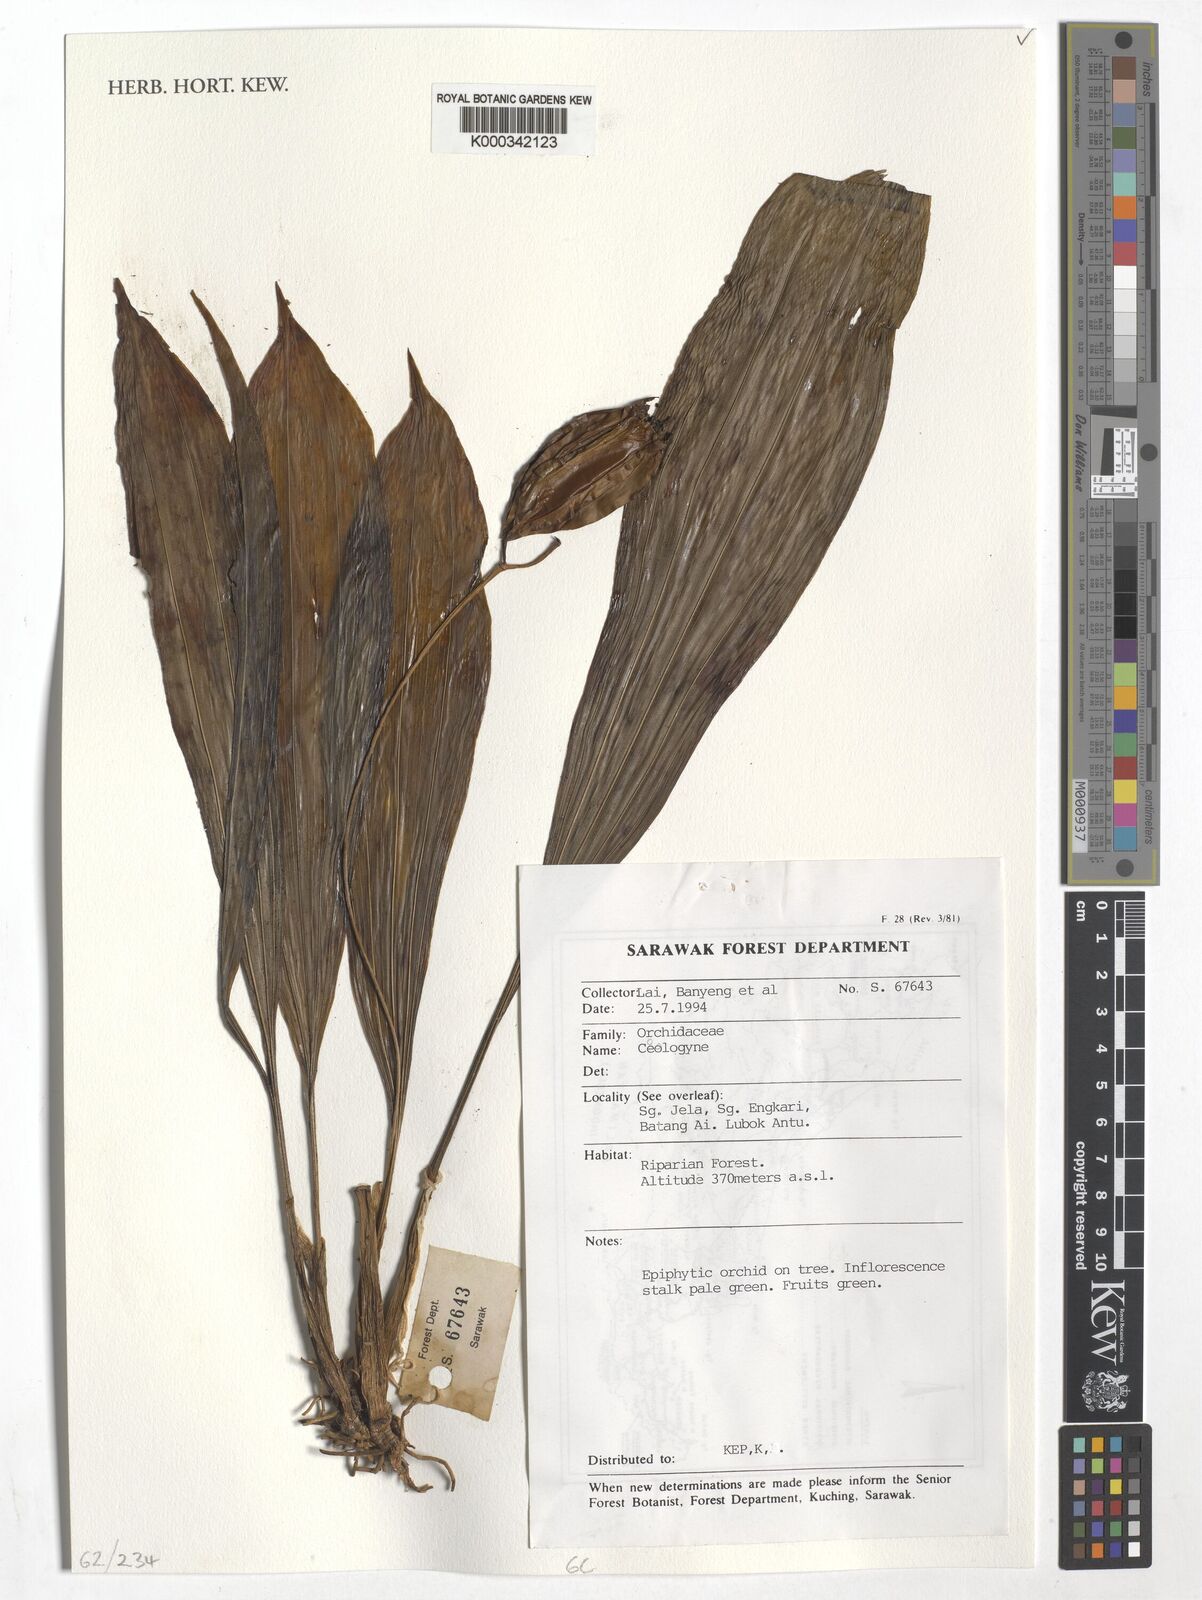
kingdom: Plantae
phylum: Tracheophyta
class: Liliopsida
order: Asparagales
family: Orchidaceae
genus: Coelogyne
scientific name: Coelogyne
